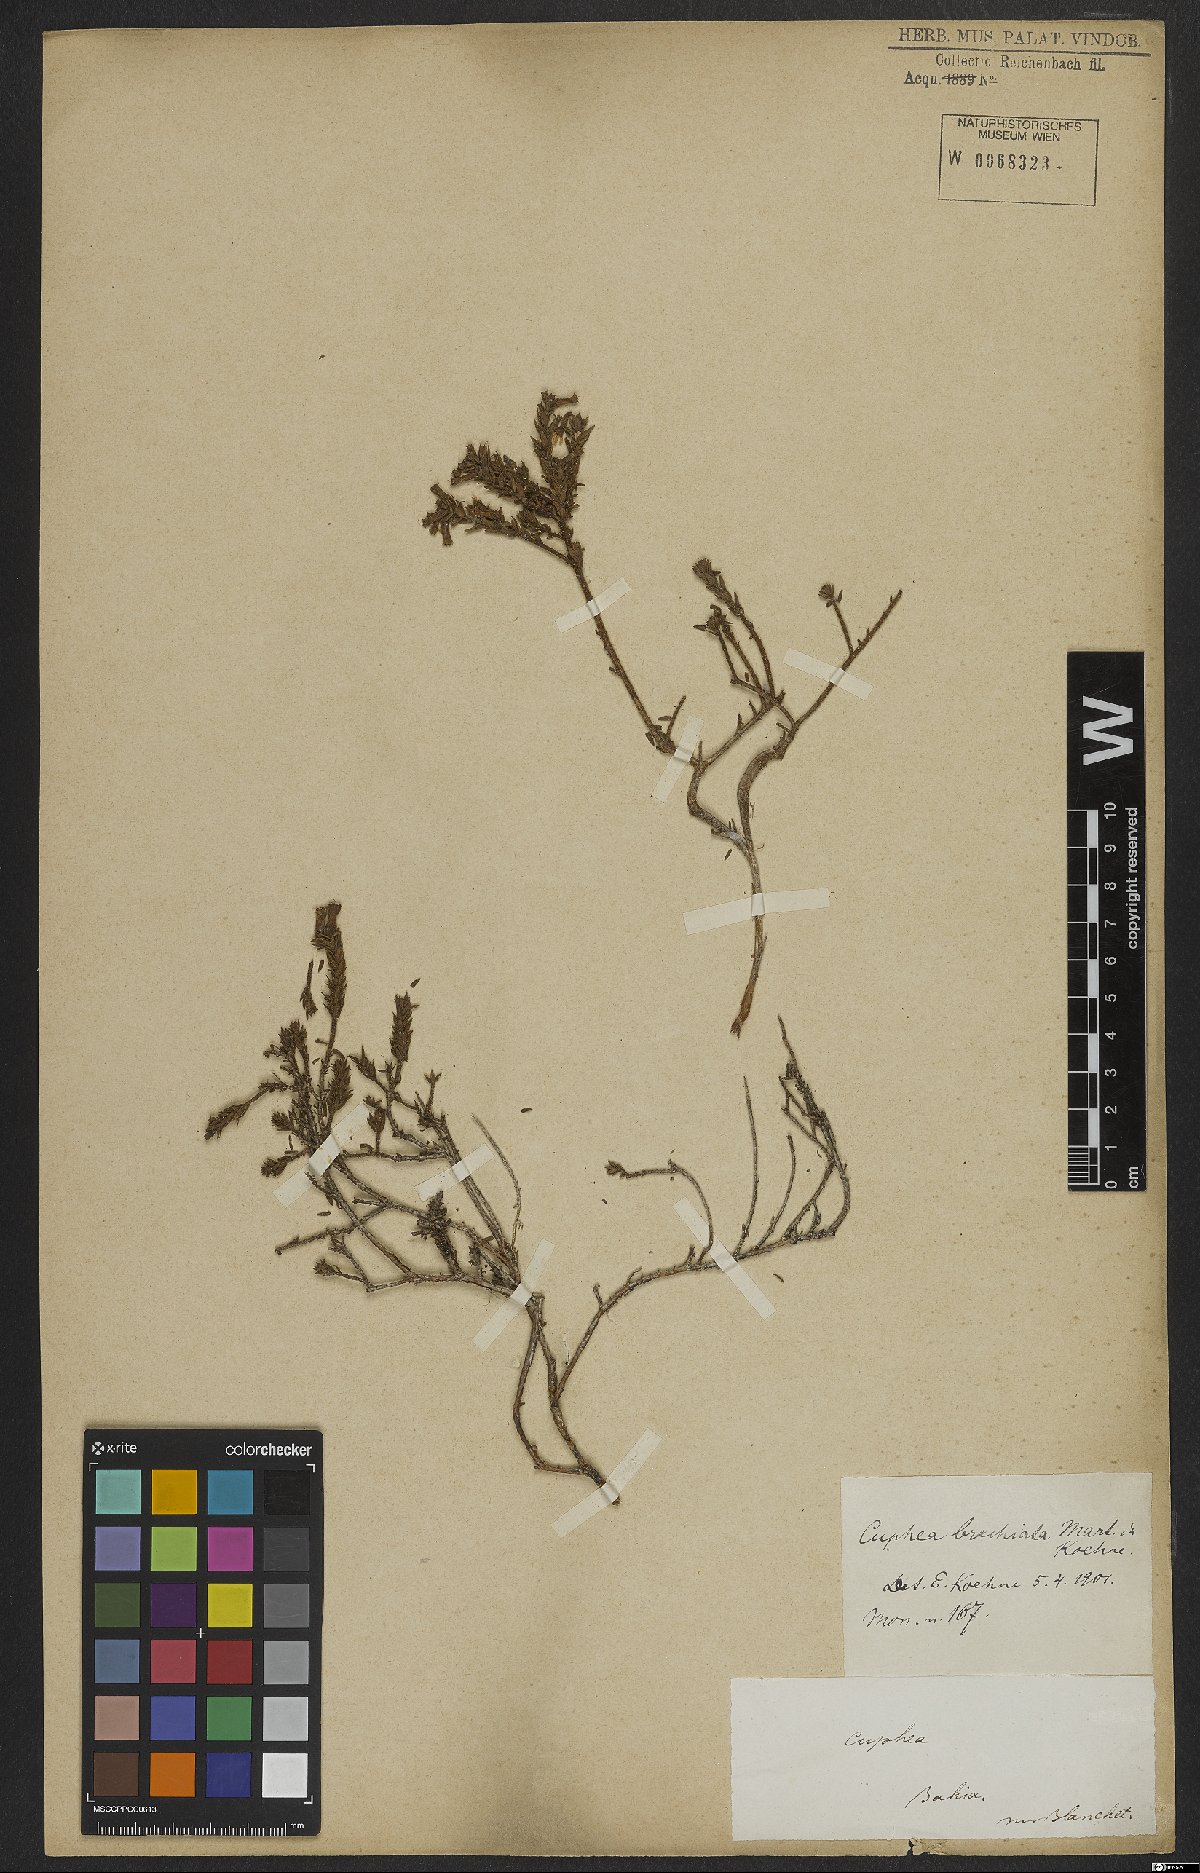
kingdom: Plantae
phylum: Tracheophyta
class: Magnoliopsida
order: Myrtales
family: Lythraceae
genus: Cuphea
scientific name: Cuphea brachiata
